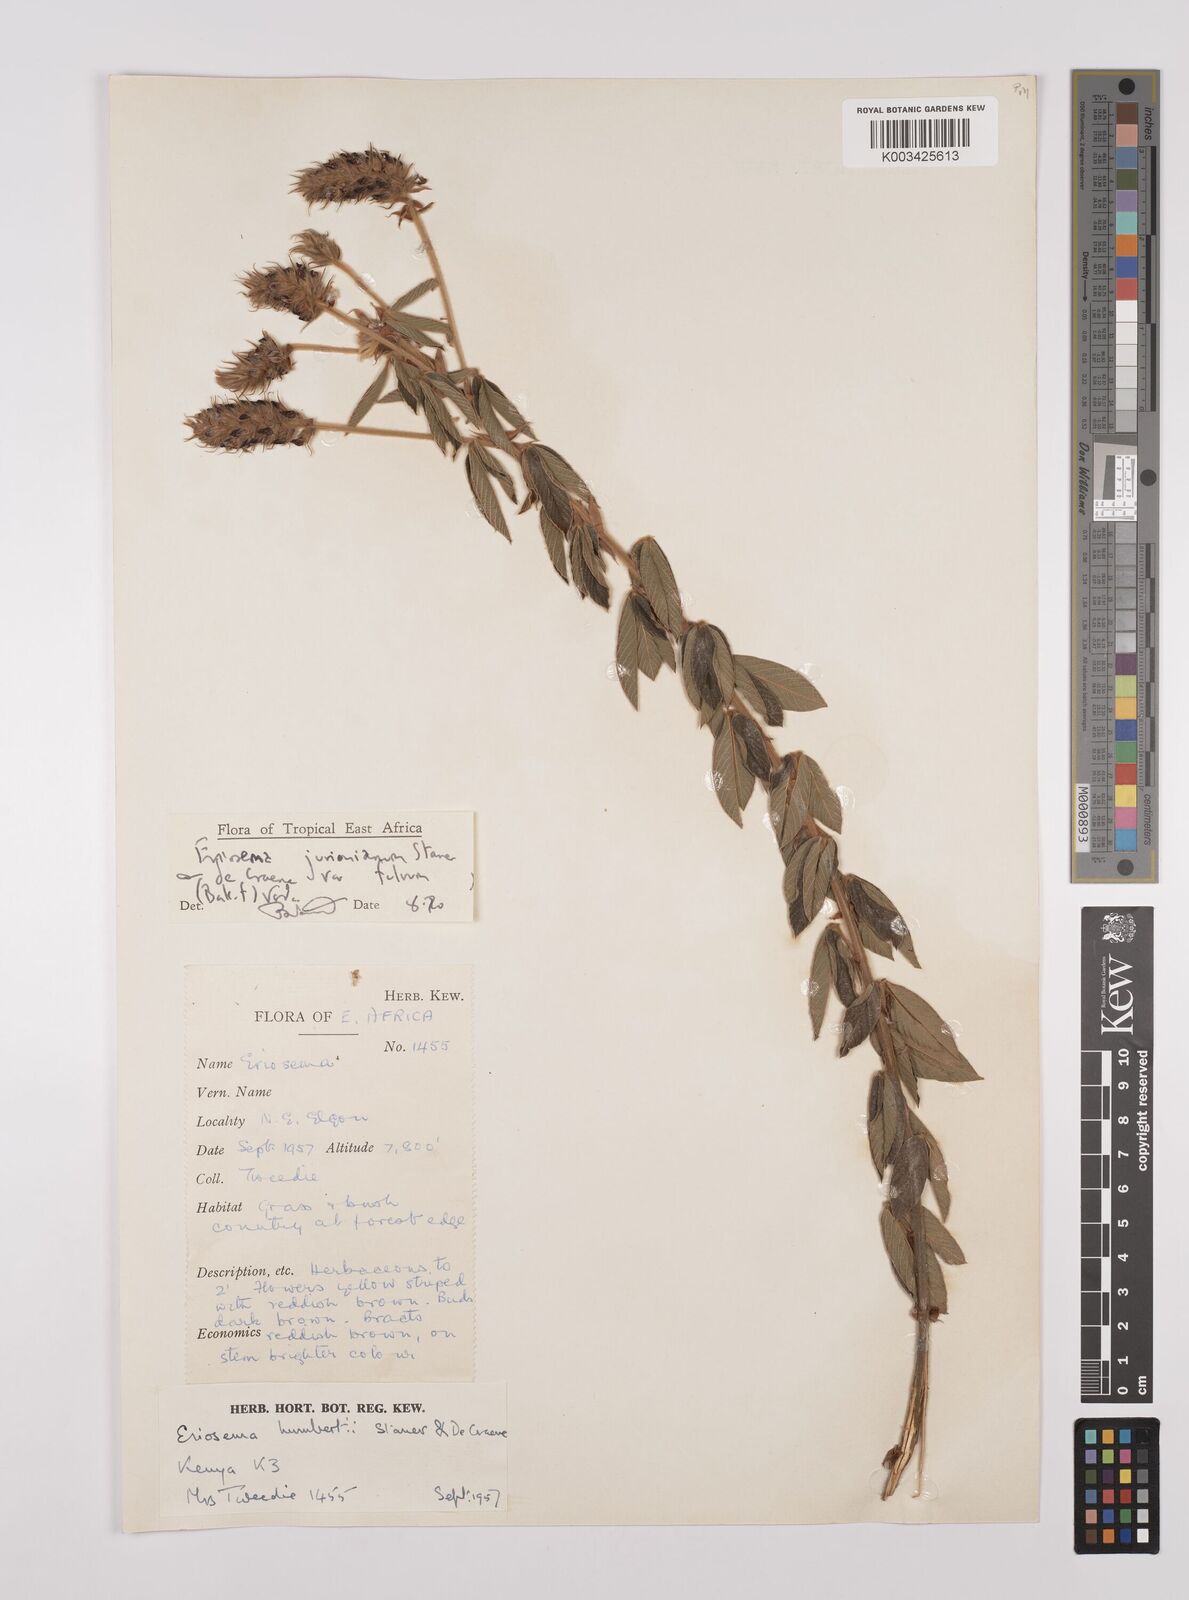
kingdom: Plantae
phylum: Tracheophyta
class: Magnoliopsida
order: Fabales
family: Fabaceae
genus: Eriosema
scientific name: Eriosema jurionianum
